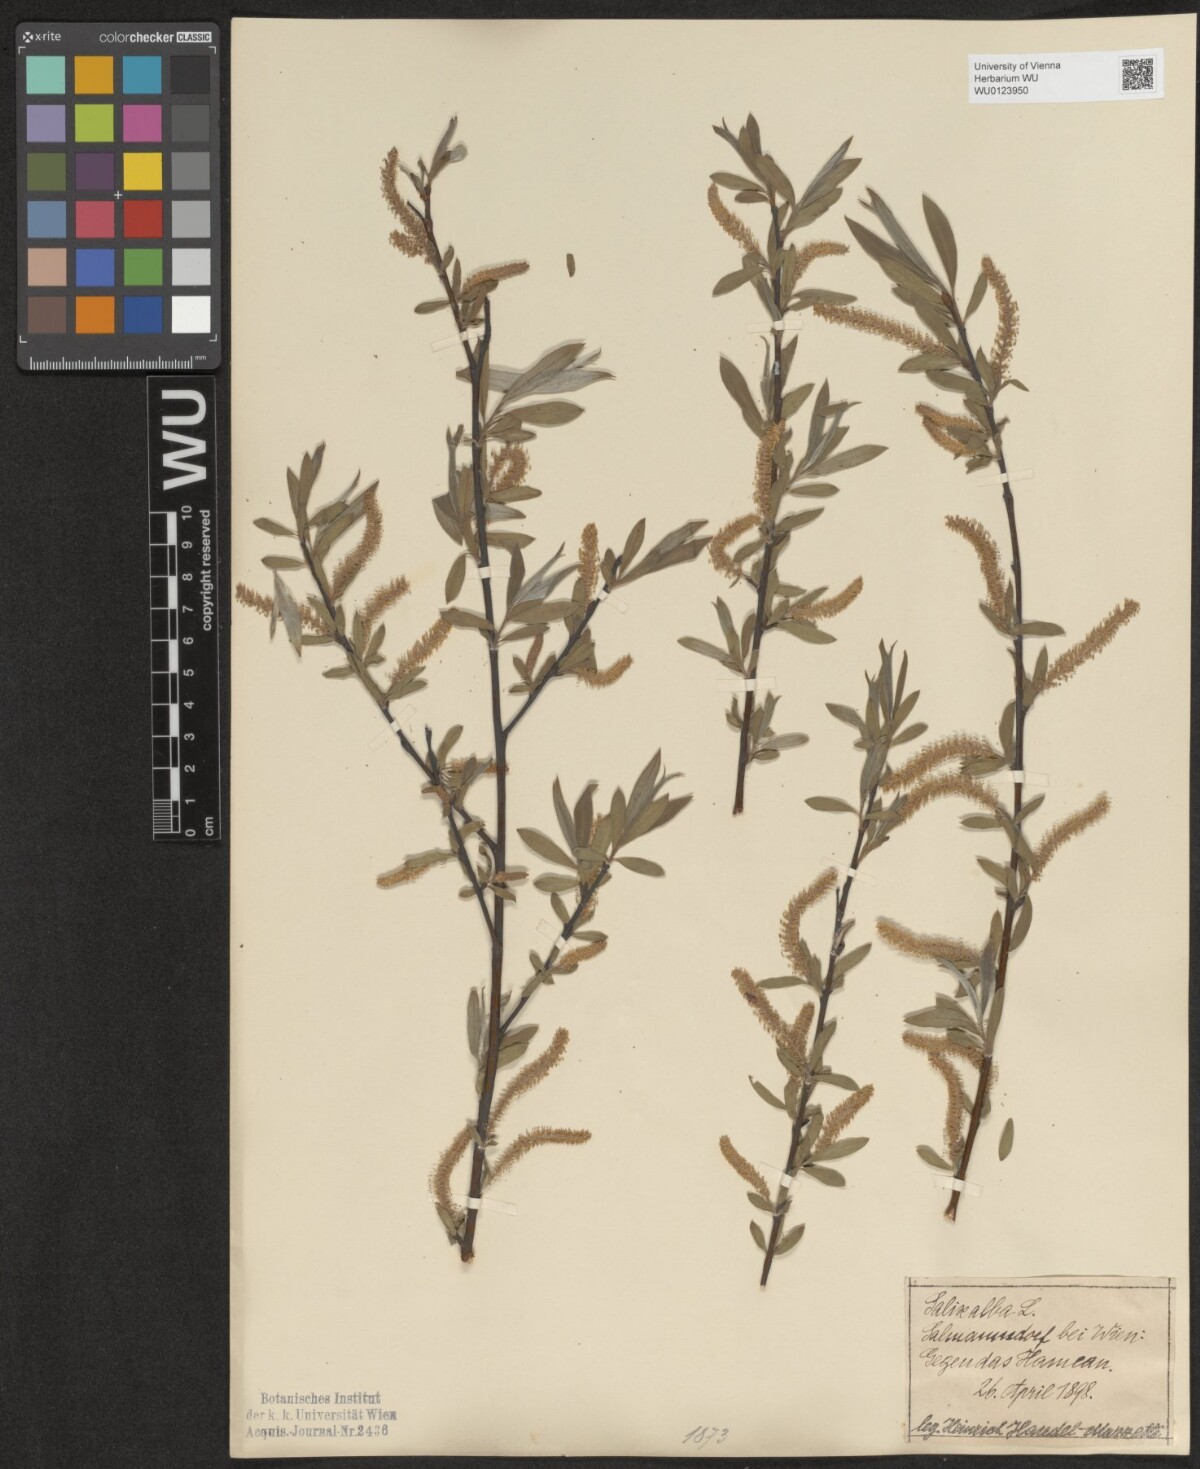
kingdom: Plantae
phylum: Tracheophyta
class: Magnoliopsida
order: Malpighiales
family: Salicaceae
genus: Salix
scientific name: Salix alba
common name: White willow
